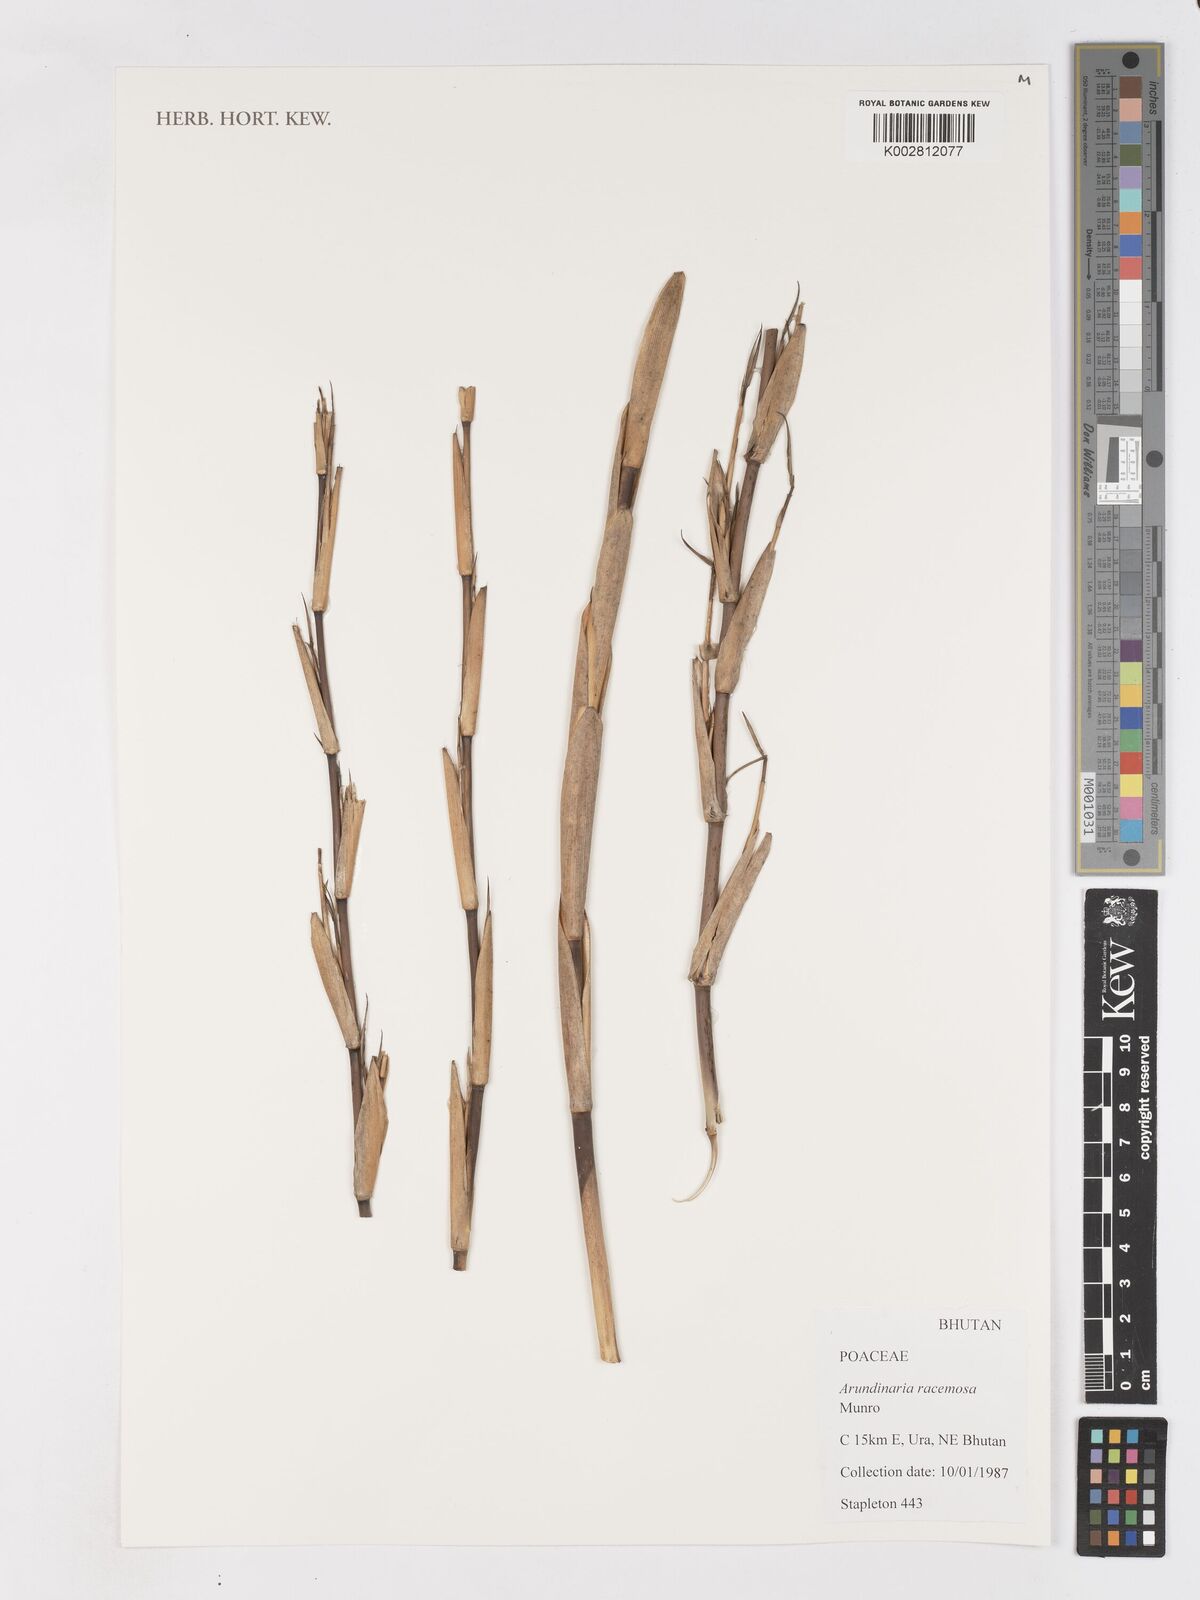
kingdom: Plantae
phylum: Tracheophyta
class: Liliopsida
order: Poales
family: Poaceae
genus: Sarocalamus
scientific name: Sarocalamus racemosus
